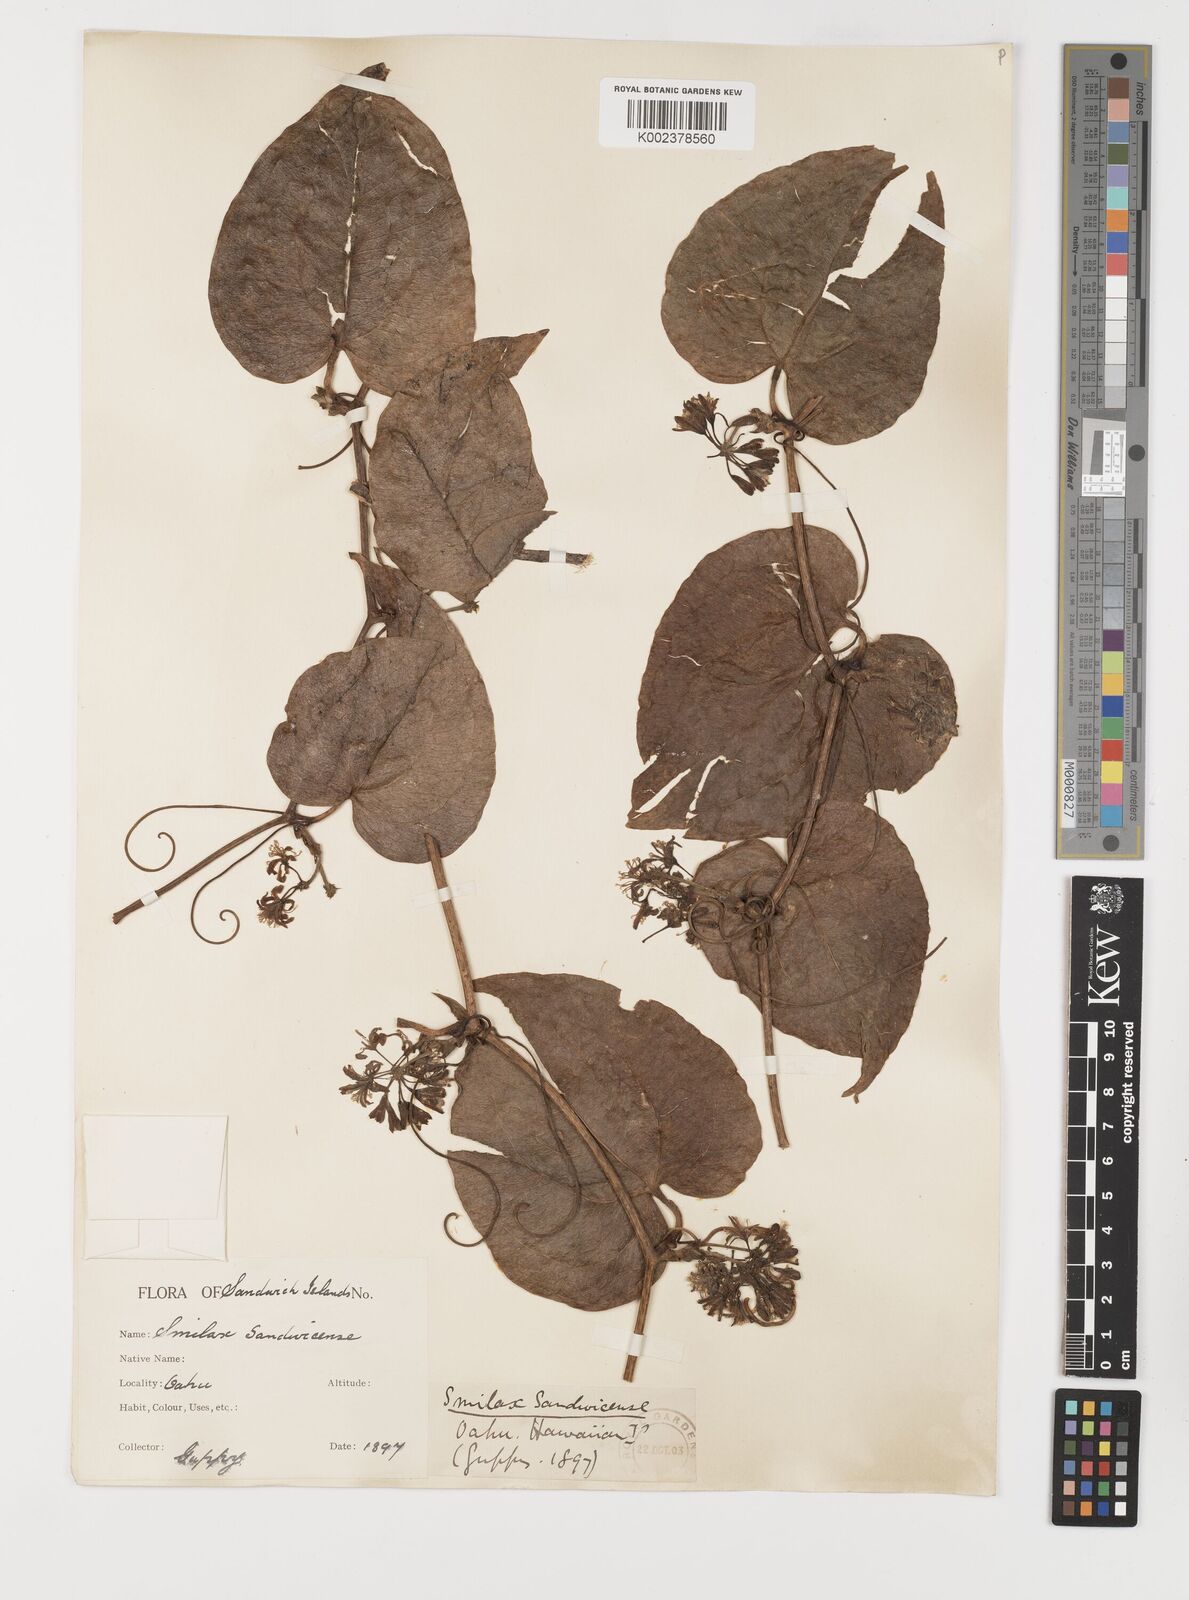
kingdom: Plantae
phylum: Tracheophyta
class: Liliopsida
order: Liliales
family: Smilacaceae
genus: Smilax
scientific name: Smilax melastomifolia
